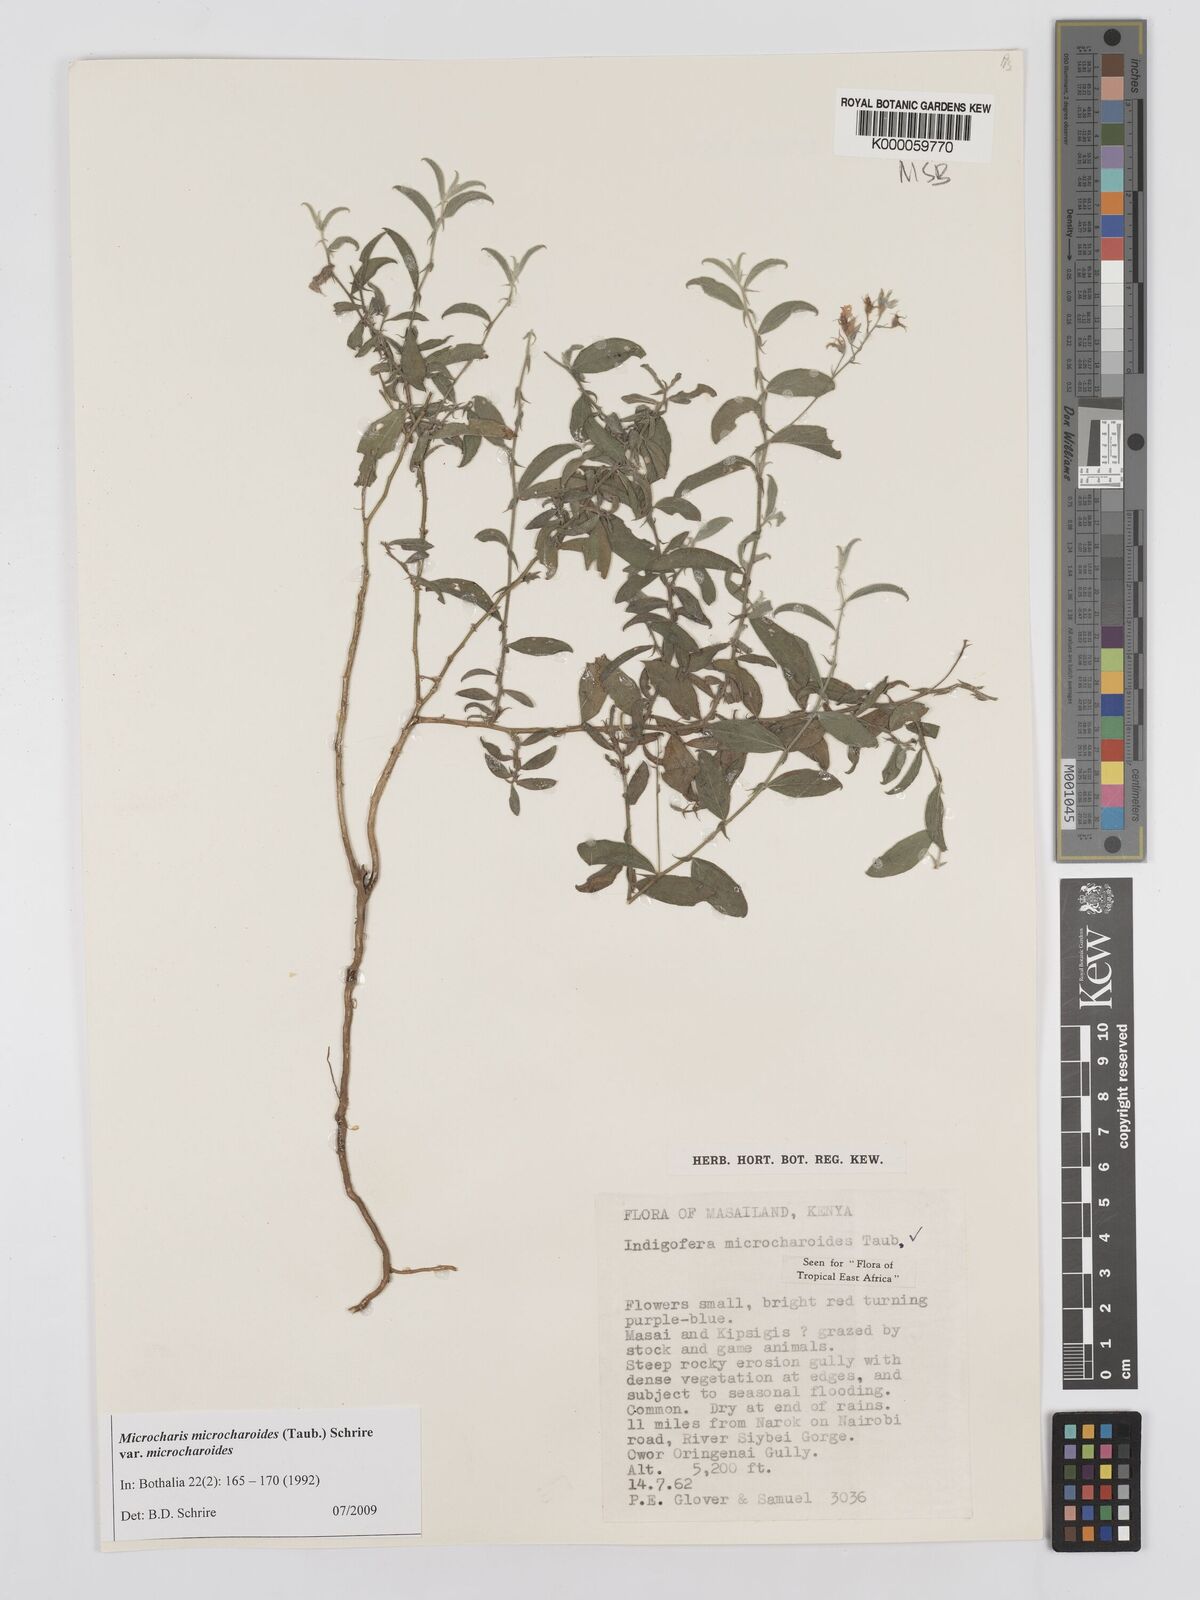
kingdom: Plantae
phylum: Tracheophyta
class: Magnoliopsida
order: Fabales
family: Fabaceae
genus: Microcharis
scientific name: Microcharis microcharoides
